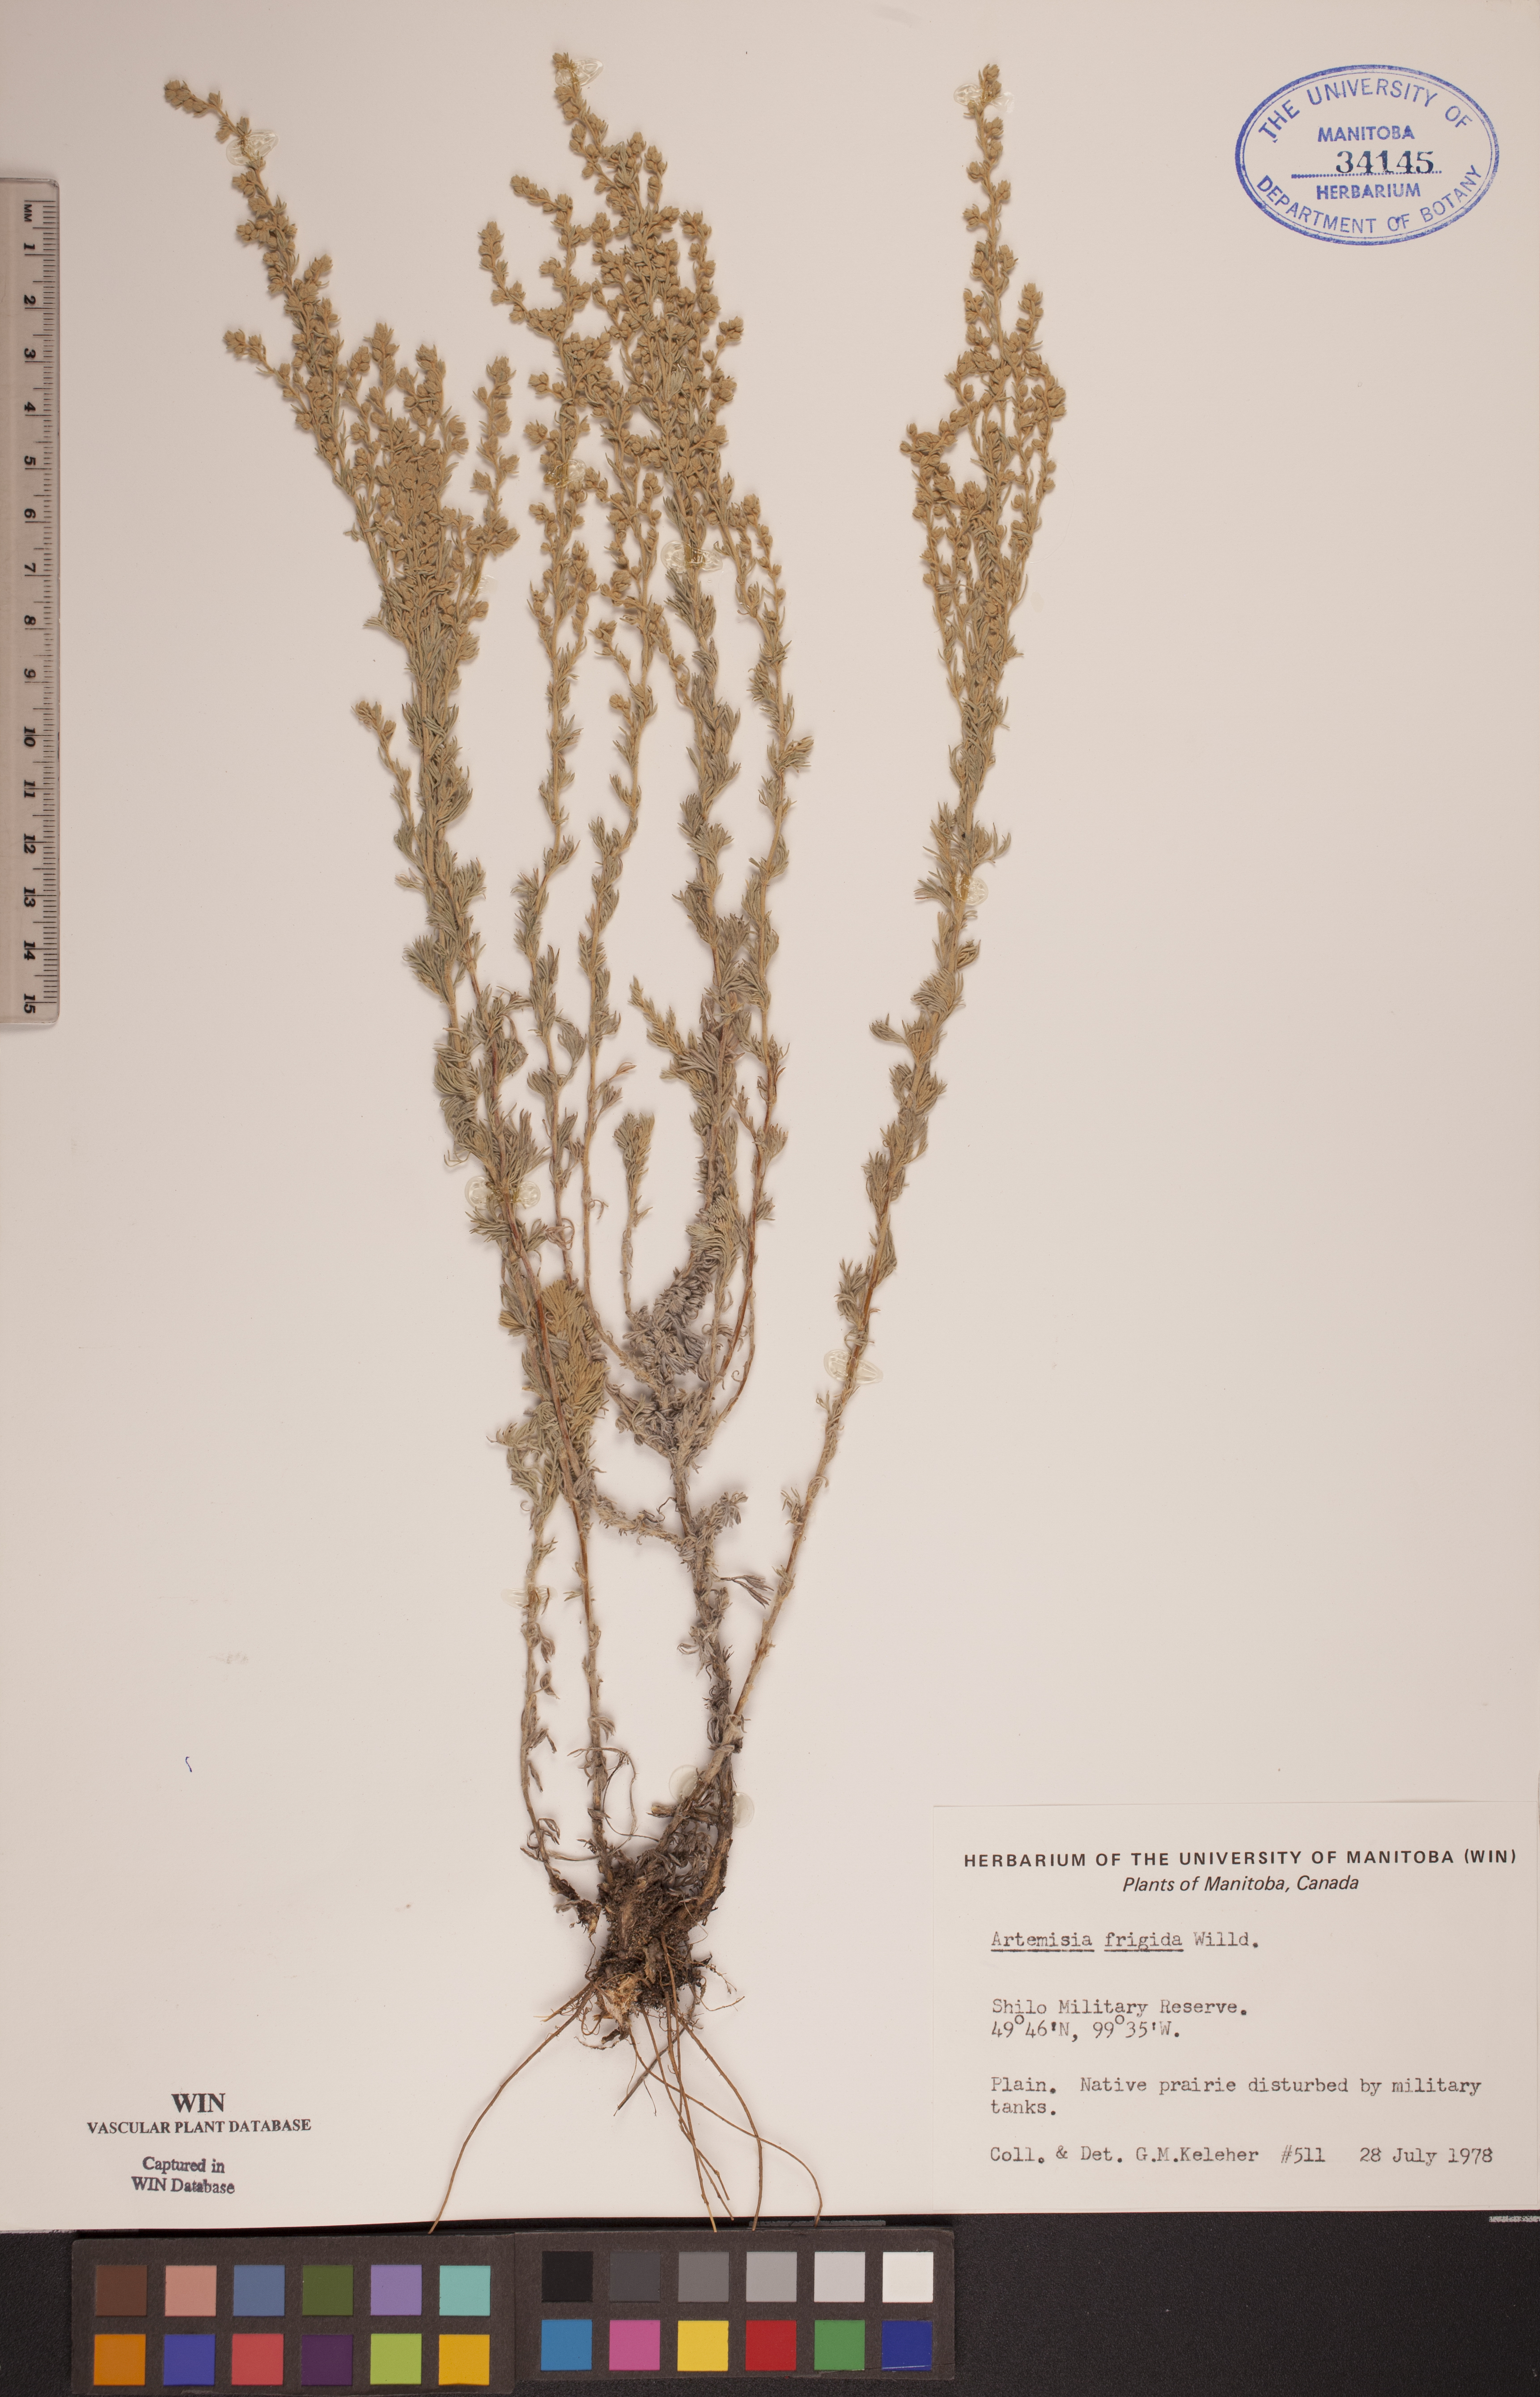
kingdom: Plantae
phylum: Tracheophyta
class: Magnoliopsida
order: Asterales
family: Asteraceae
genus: Artemisia
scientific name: Artemisia frigida
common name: Prairie sagewort
